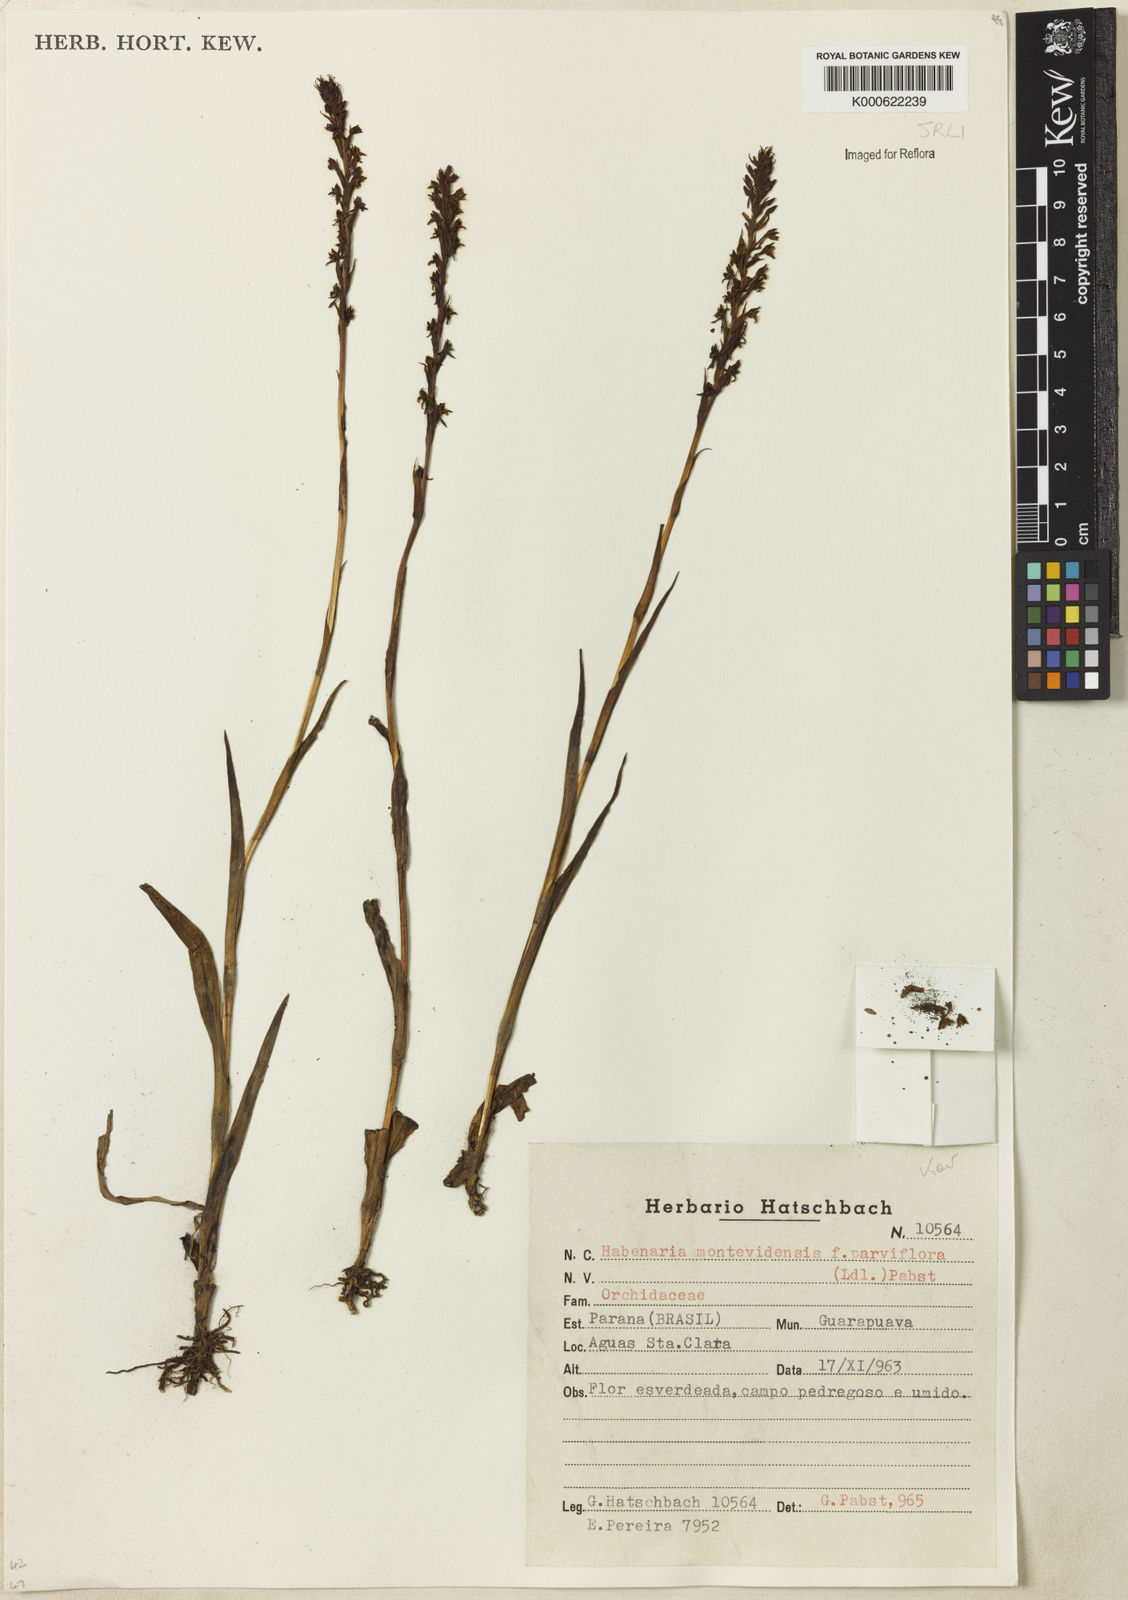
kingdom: Plantae
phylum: Tracheophyta
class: Liliopsida
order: Asparagales
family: Orchidaceae
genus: Habenaria
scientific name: Habenaria parviflora
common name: Small flowered habenaria
